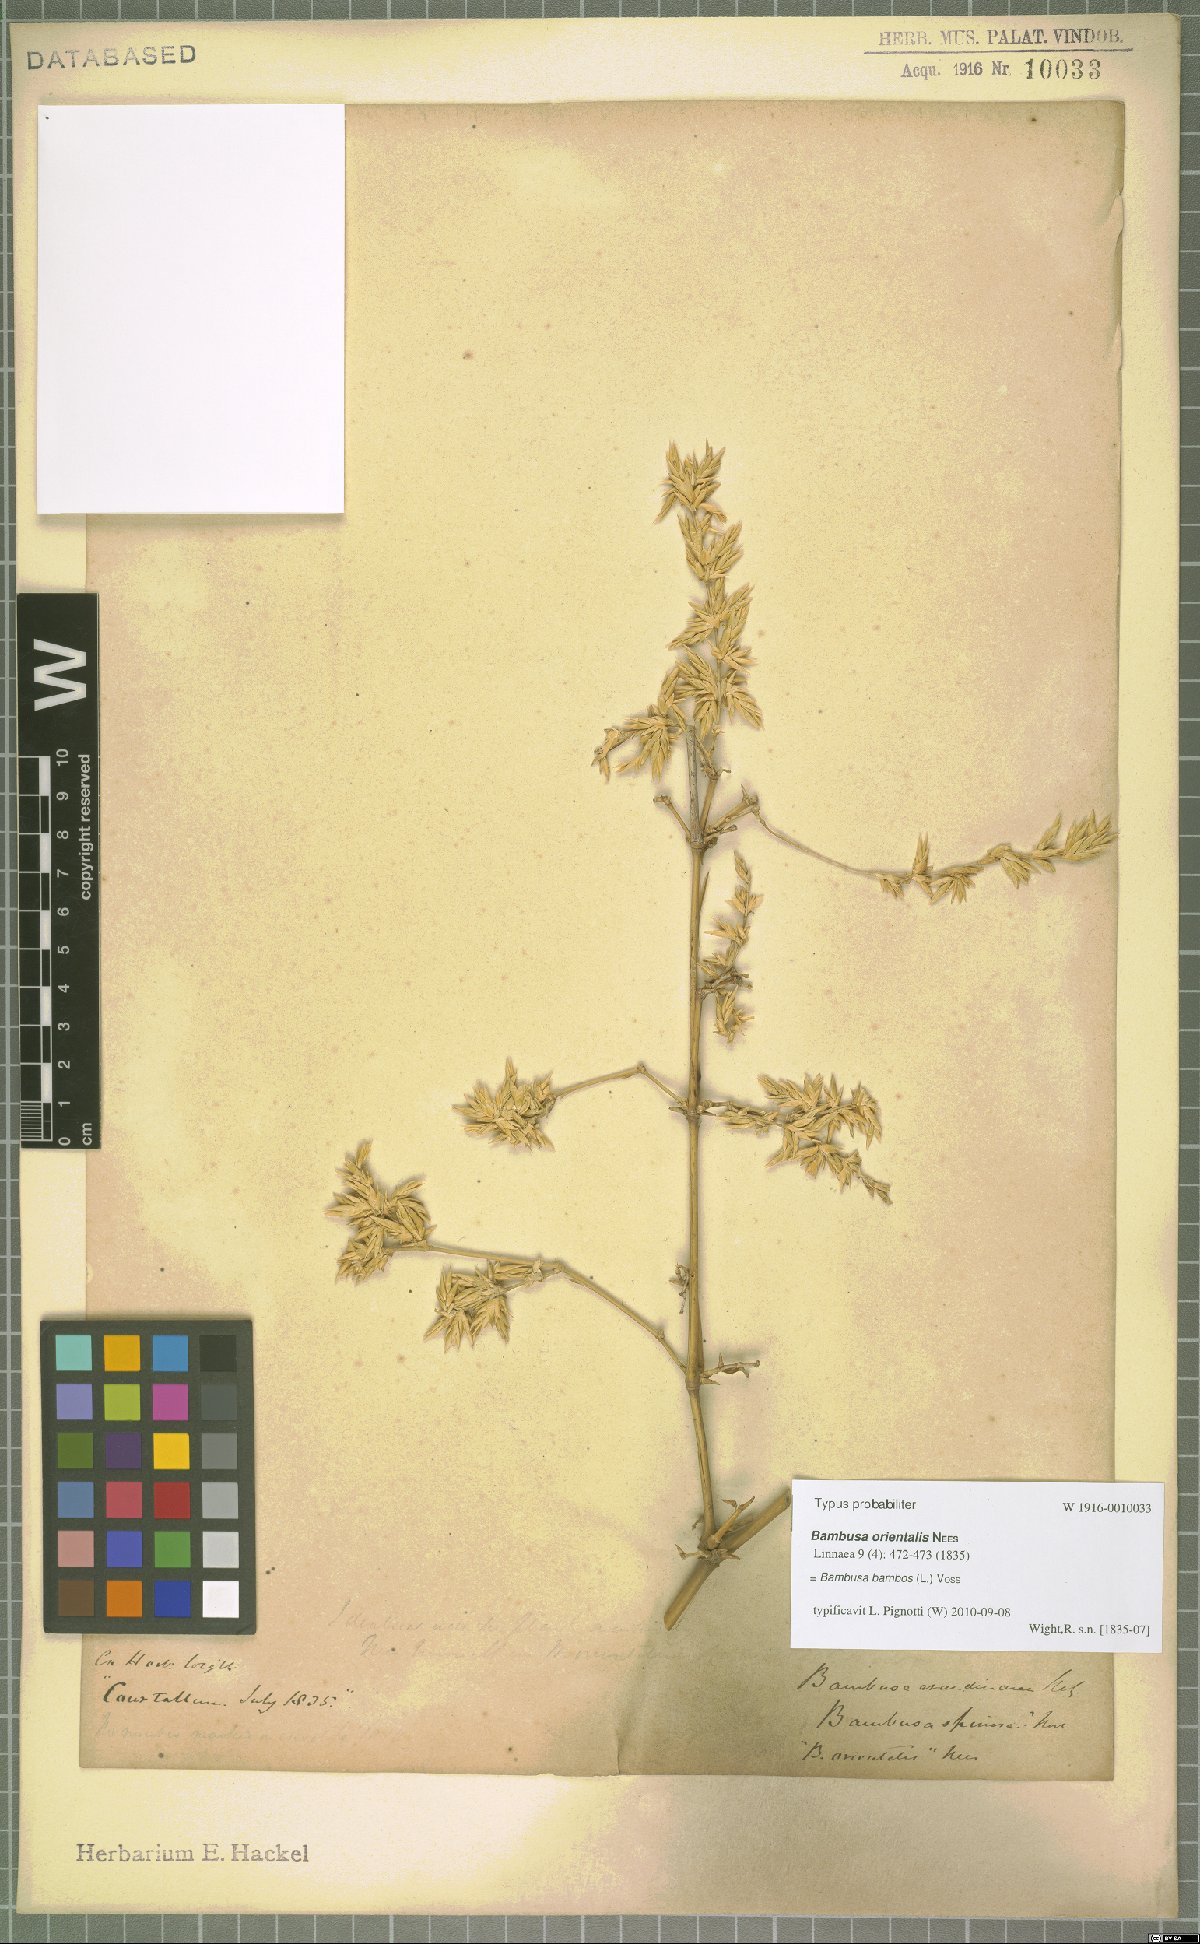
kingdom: Plantae
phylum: Tracheophyta
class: Liliopsida
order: Poales
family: Poaceae
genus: Bambusa
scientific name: Bambusa bambos
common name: Indian thorny bamboo
